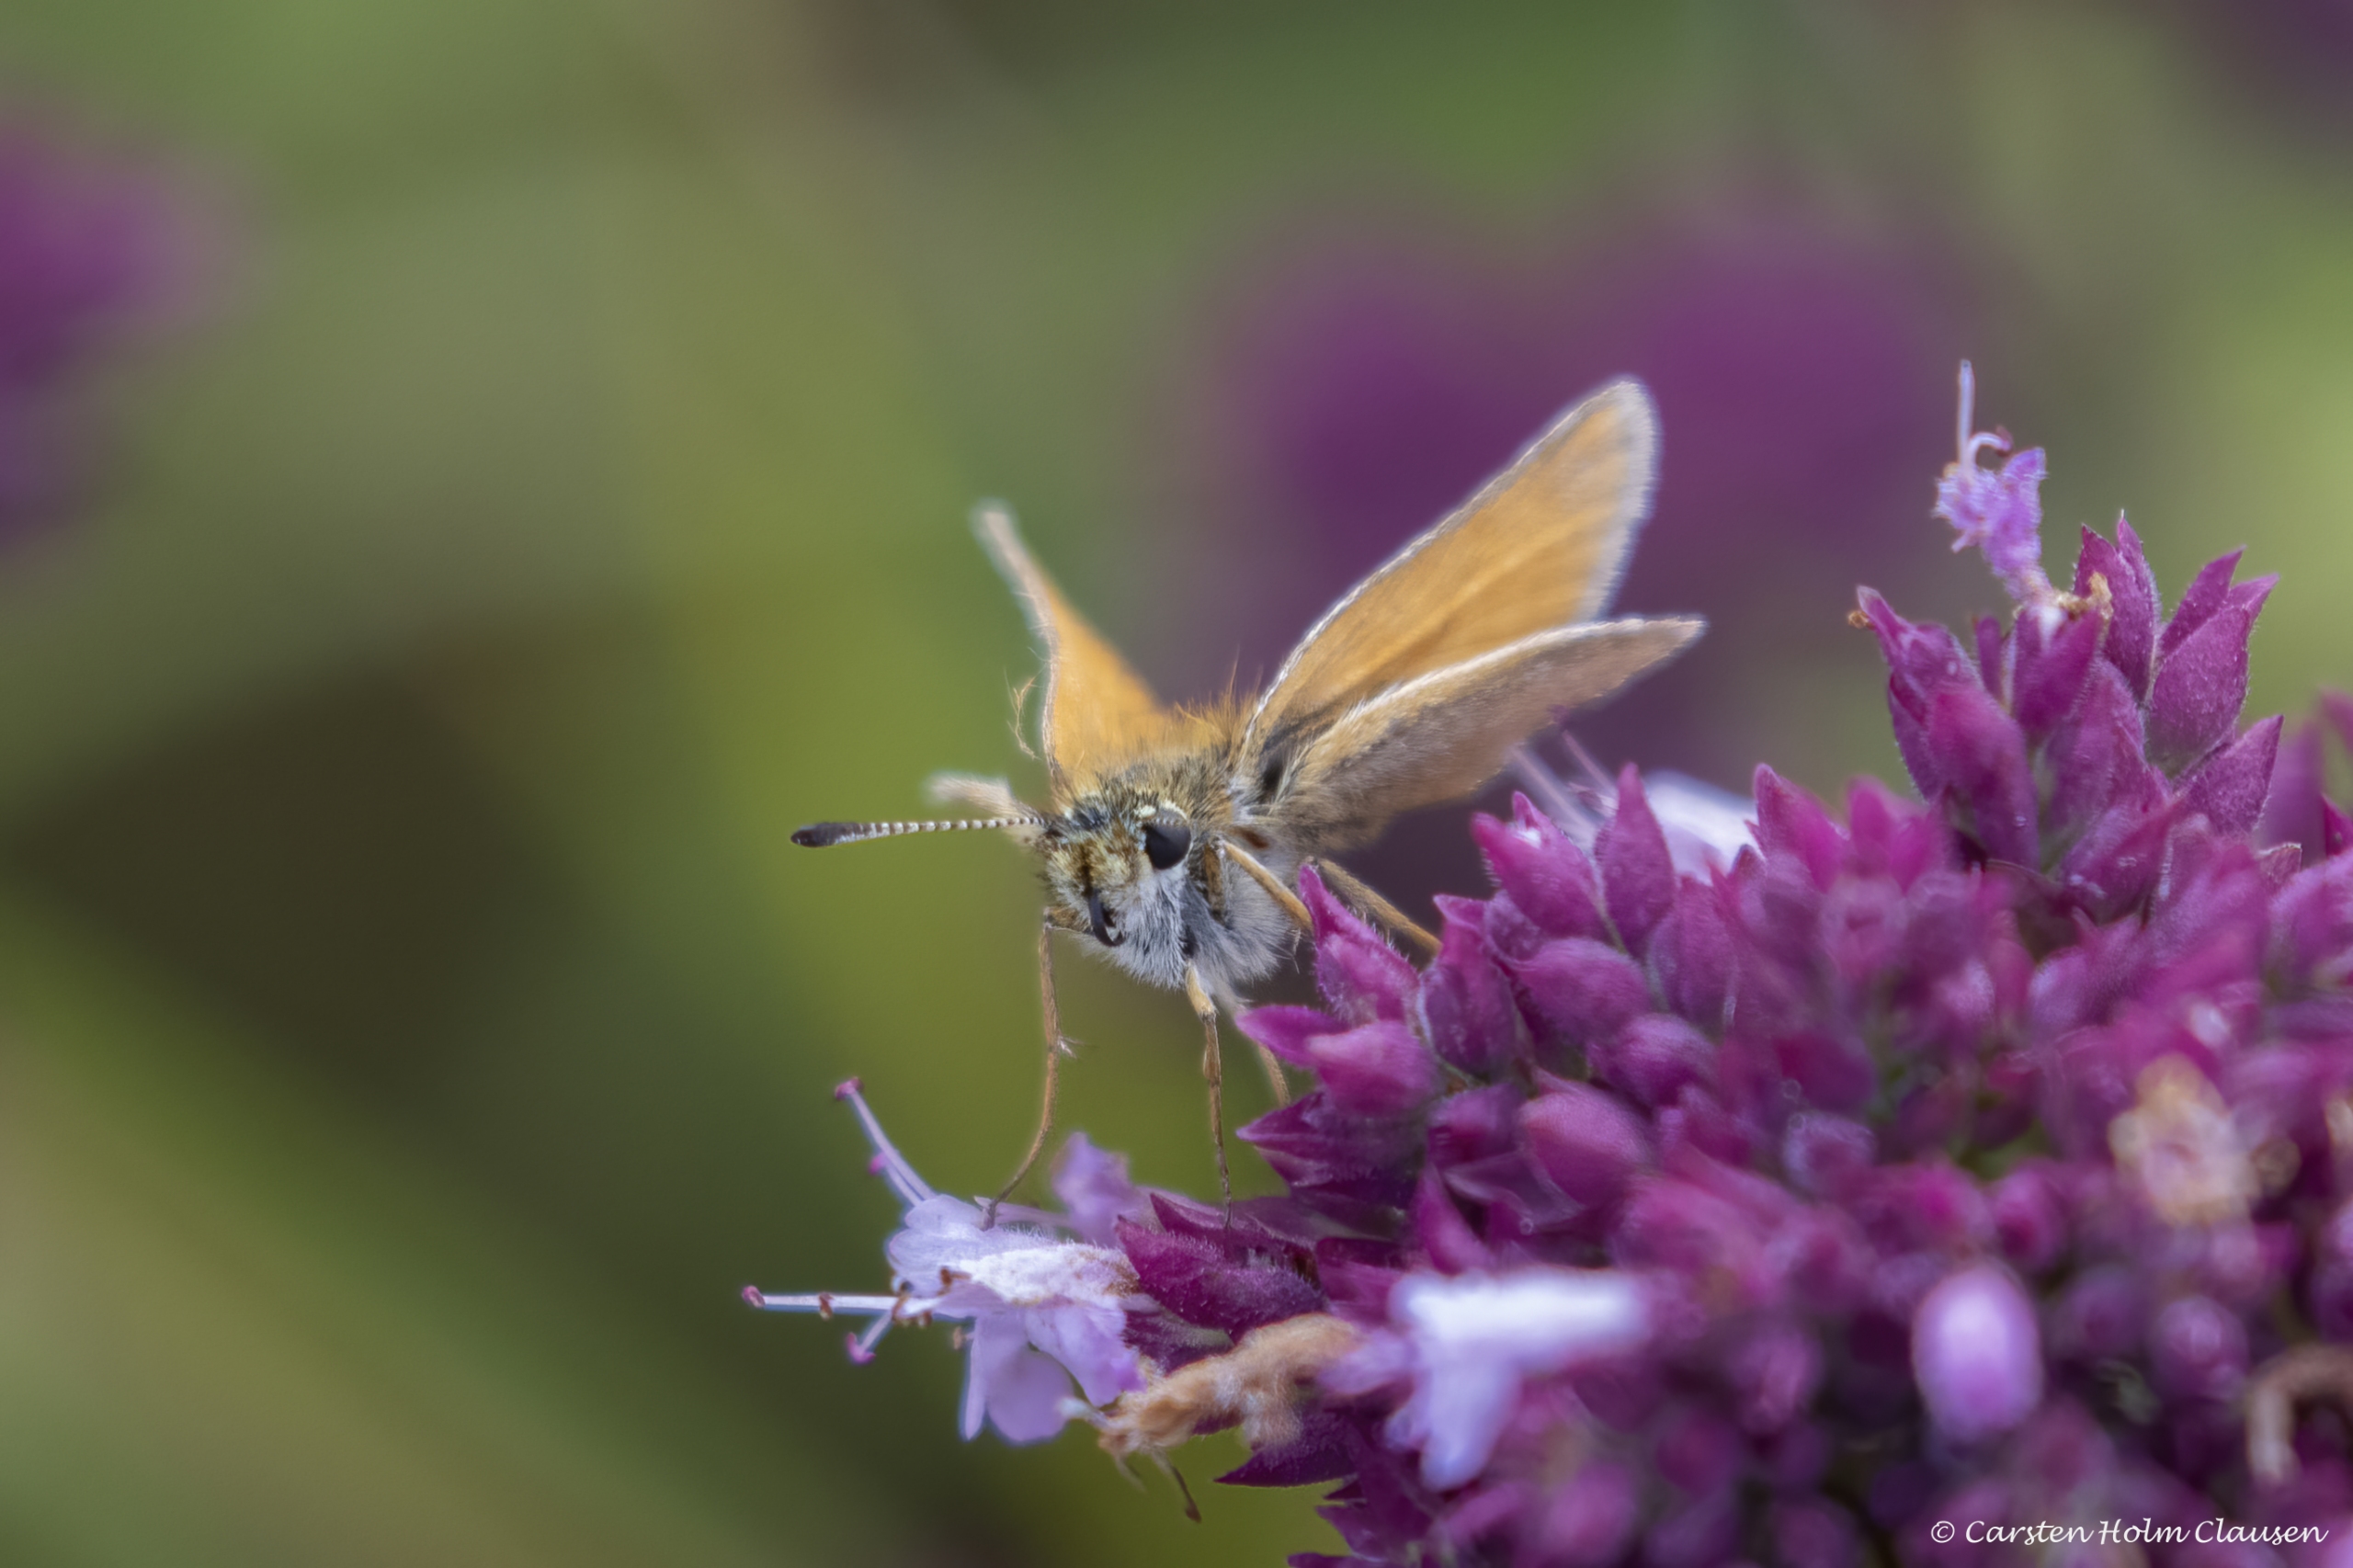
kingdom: Animalia
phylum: Arthropoda
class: Insecta
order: Lepidoptera
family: Hesperiidae
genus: Thymelicus
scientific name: Thymelicus lineola
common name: Stregbredpande
